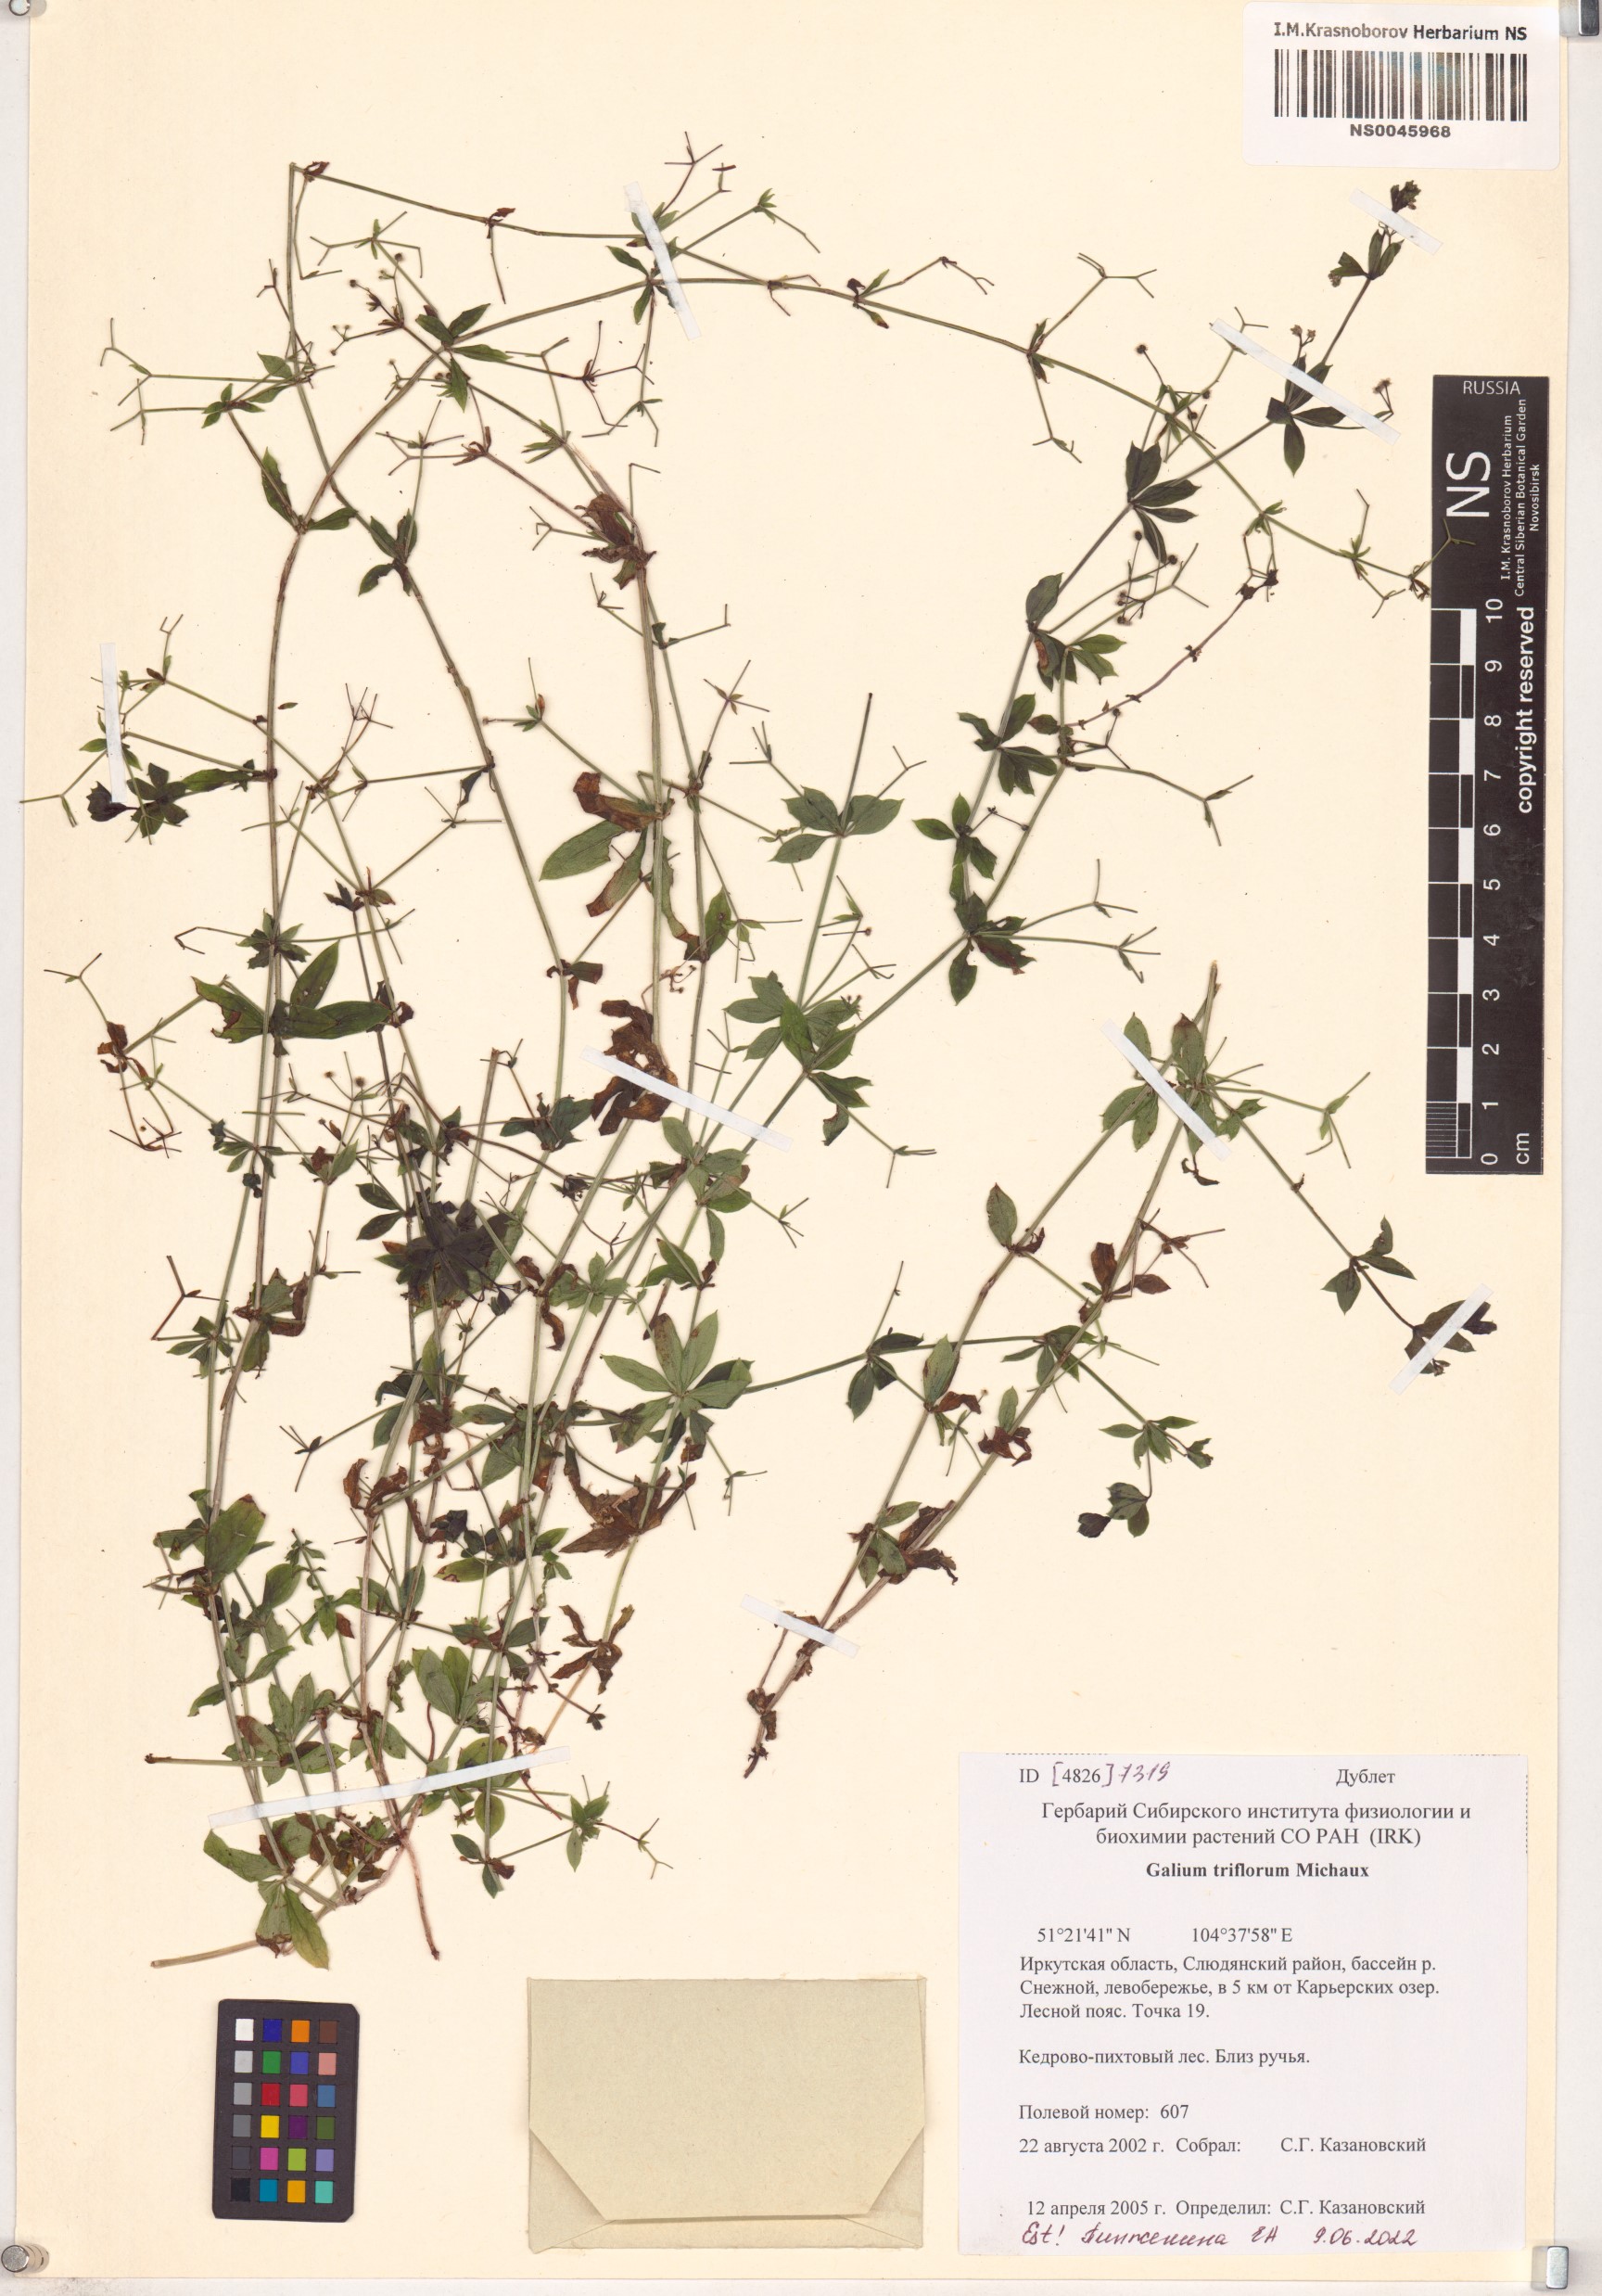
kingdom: Plantae
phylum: Tracheophyta
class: Magnoliopsida
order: Gentianales
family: Rubiaceae
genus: Galium
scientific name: Galium triflorum
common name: Fragrant bedstraw
